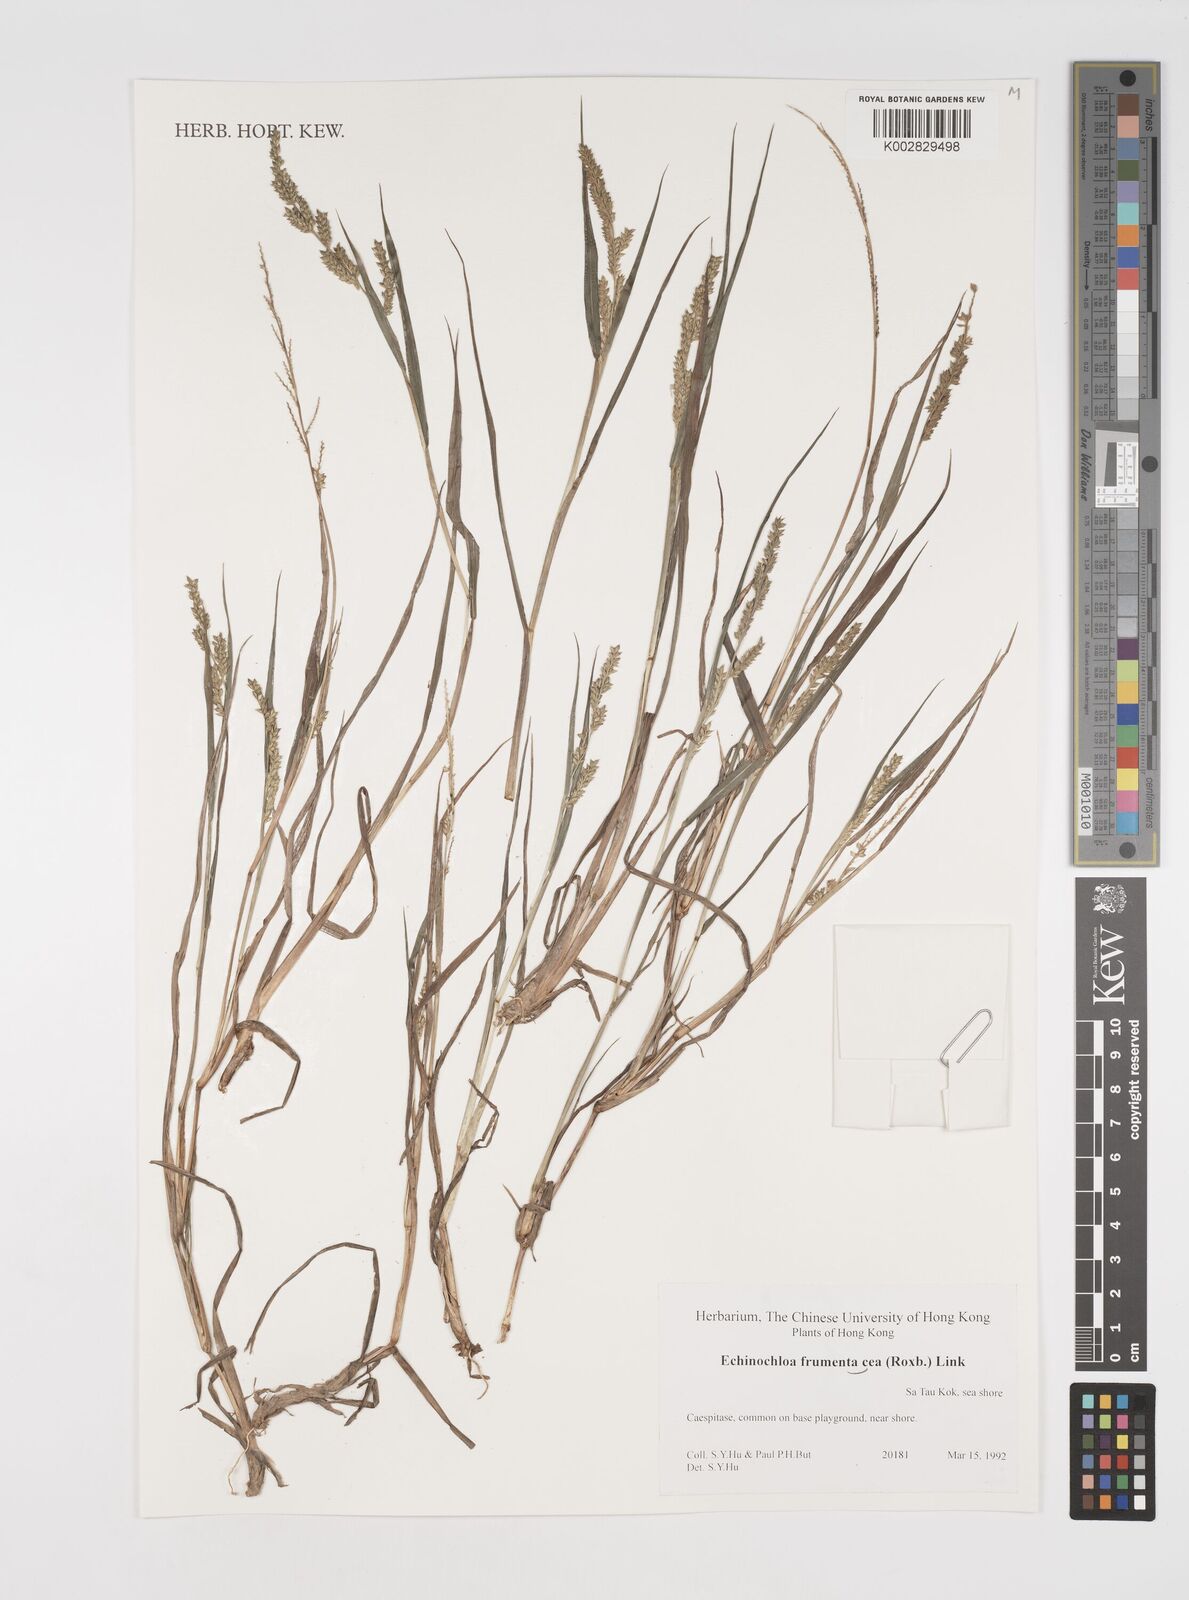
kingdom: Plantae
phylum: Tracheophyta
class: Liliopsida
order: Poales
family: Poaceae
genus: Echinochloa
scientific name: Echinochloa frumentacea
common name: Billion-dollar grass
